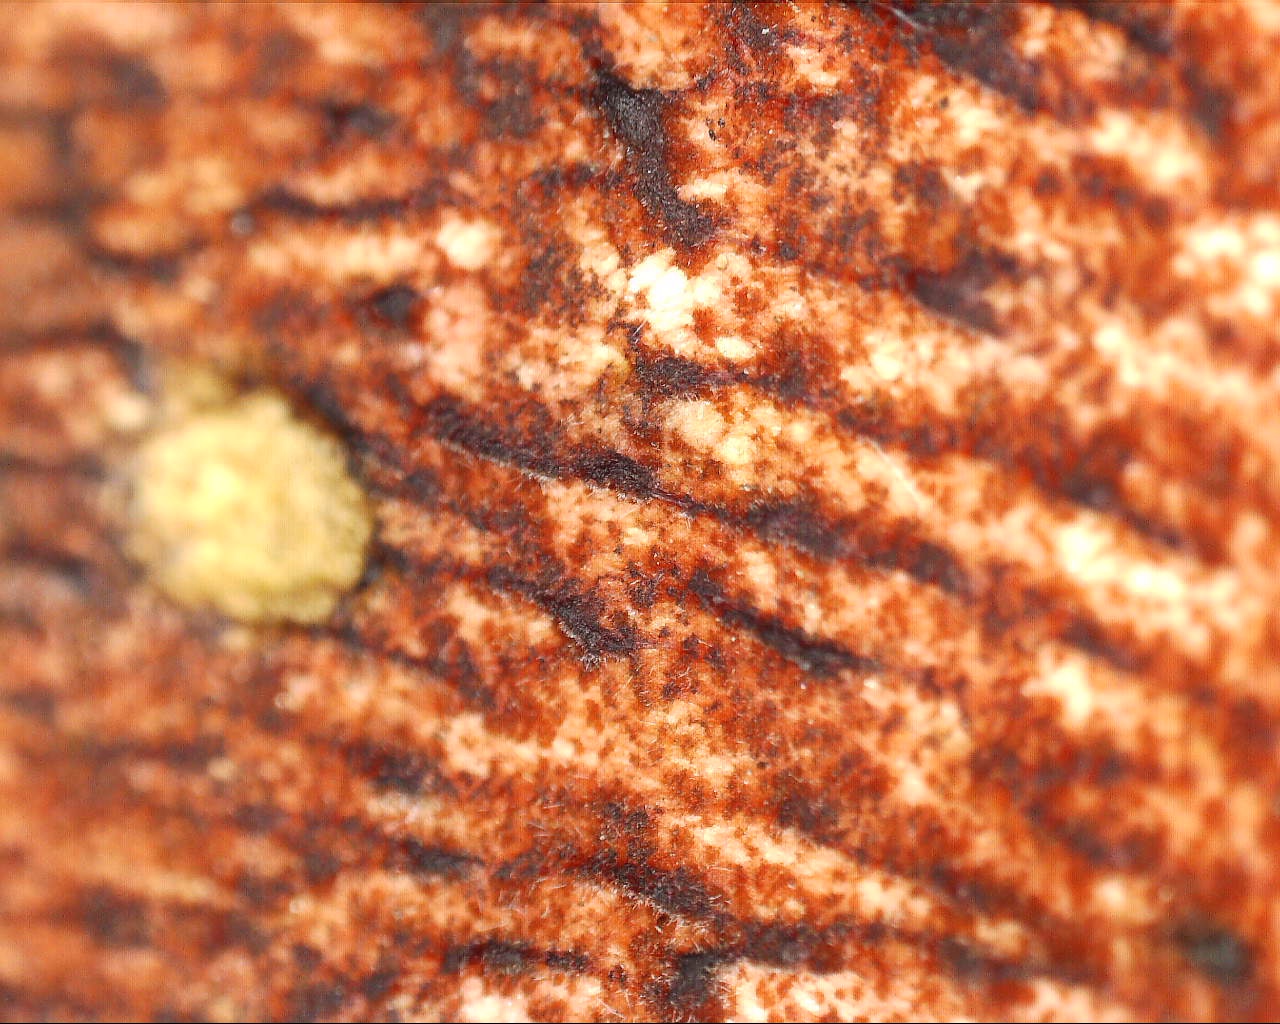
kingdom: Fungi
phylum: Basidiomycota
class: Agaricomycetes
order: Boletales
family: Boletaceae
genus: Neoboletus
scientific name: Neoboletus erythropus
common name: punktstokket indigorørhat
